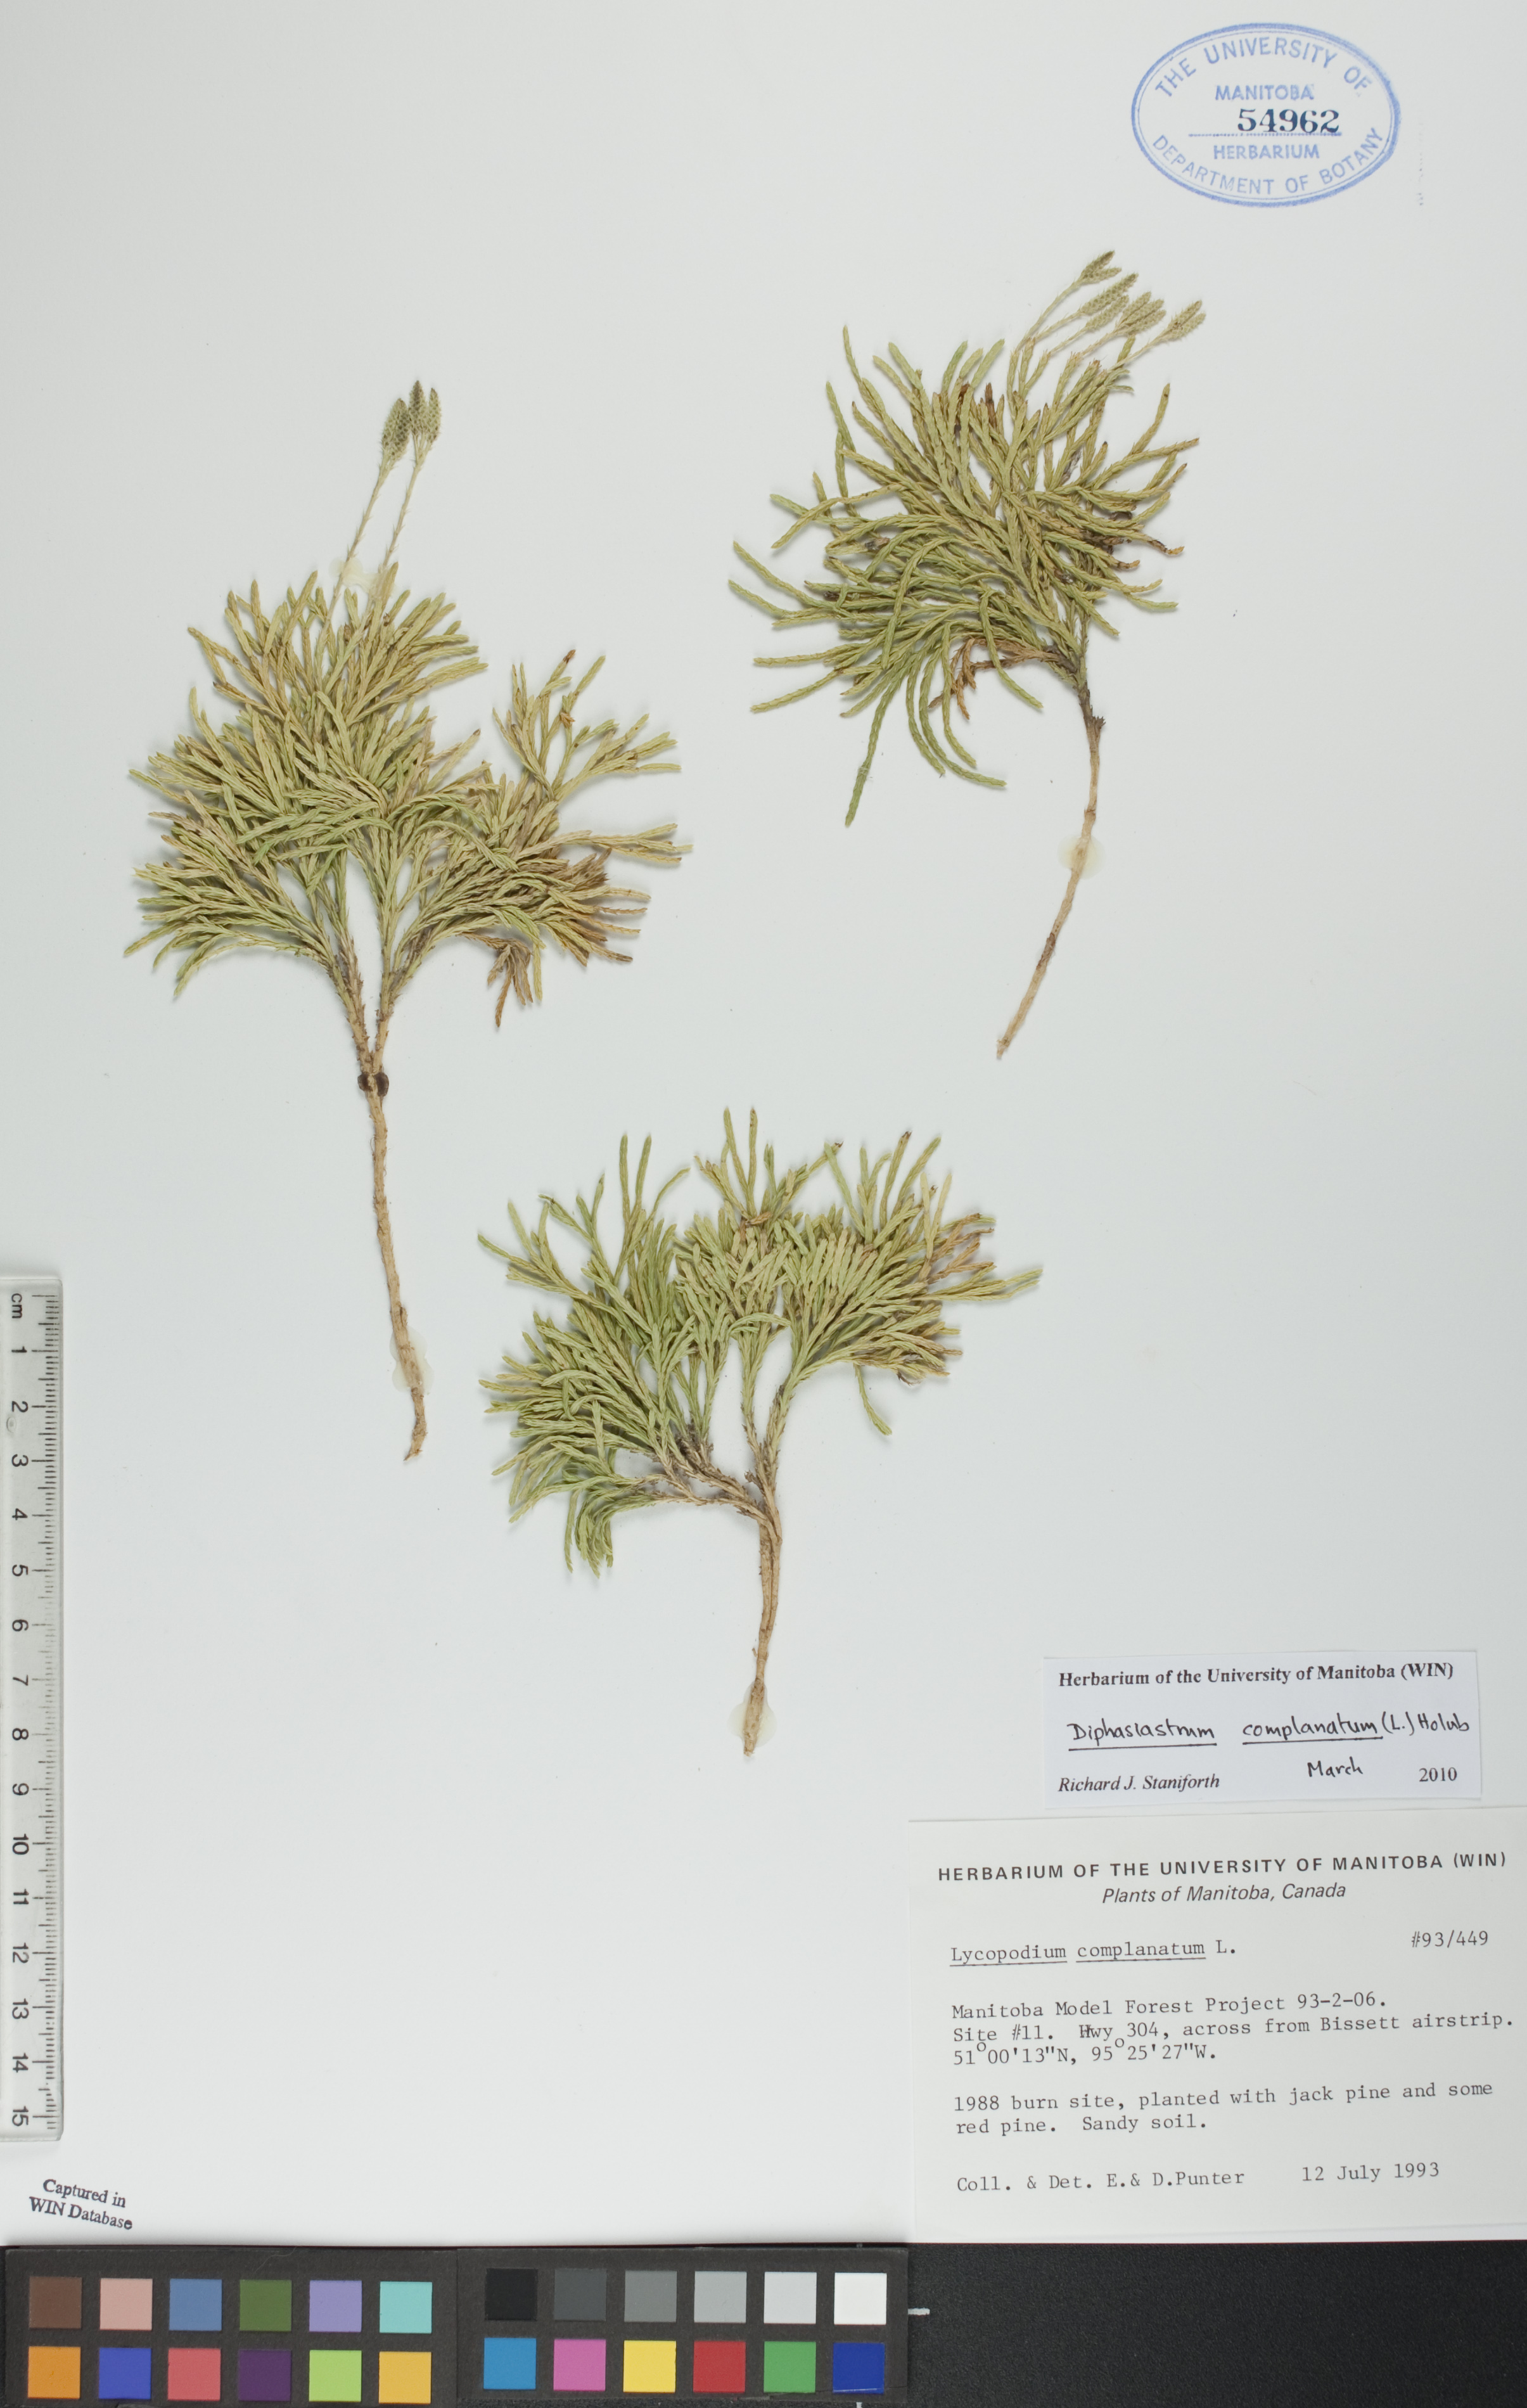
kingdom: Plantae
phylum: Tracheophyta
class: Lycopodiopsida
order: Lycopodiales
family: Lycopodiaceae
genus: Diphasiastrum
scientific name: Diphasiastrum complanatum
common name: Northern running-pine
